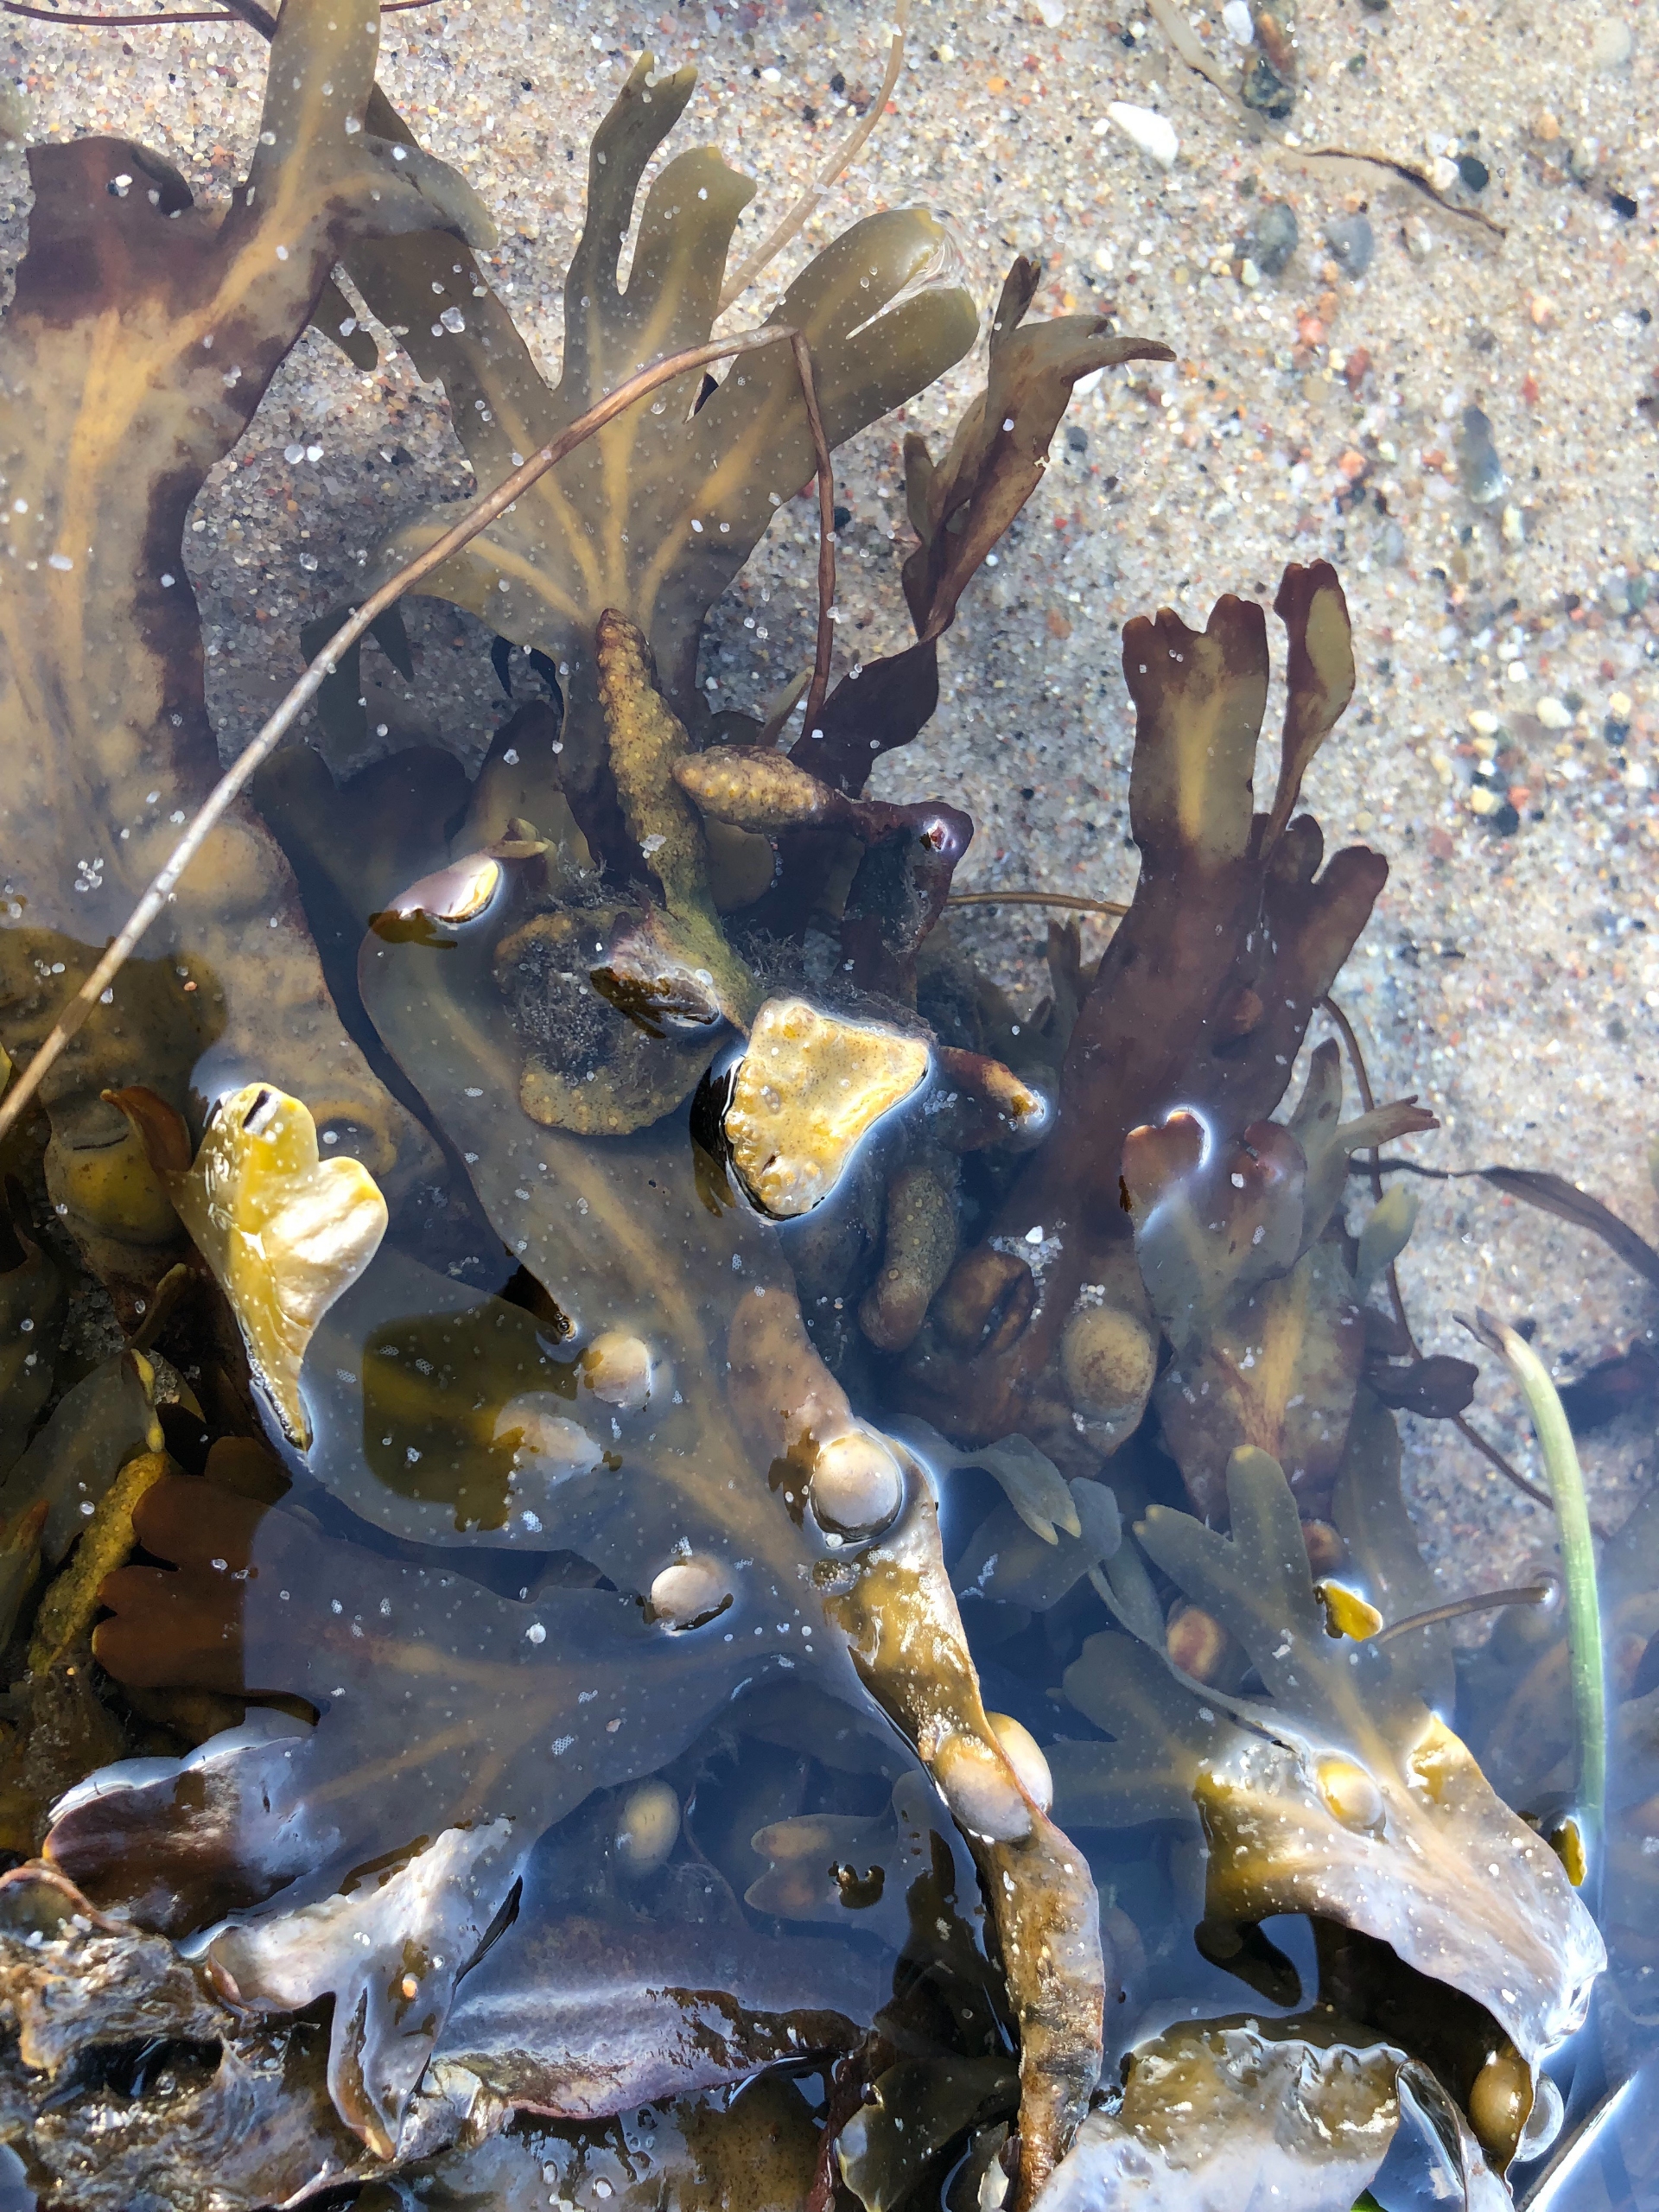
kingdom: Chromista
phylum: Ochrophyta
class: Phaeophyceae
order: Fucales
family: Fucaceae
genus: Fucus
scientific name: Fucus vesiculosus
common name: Blæretang
